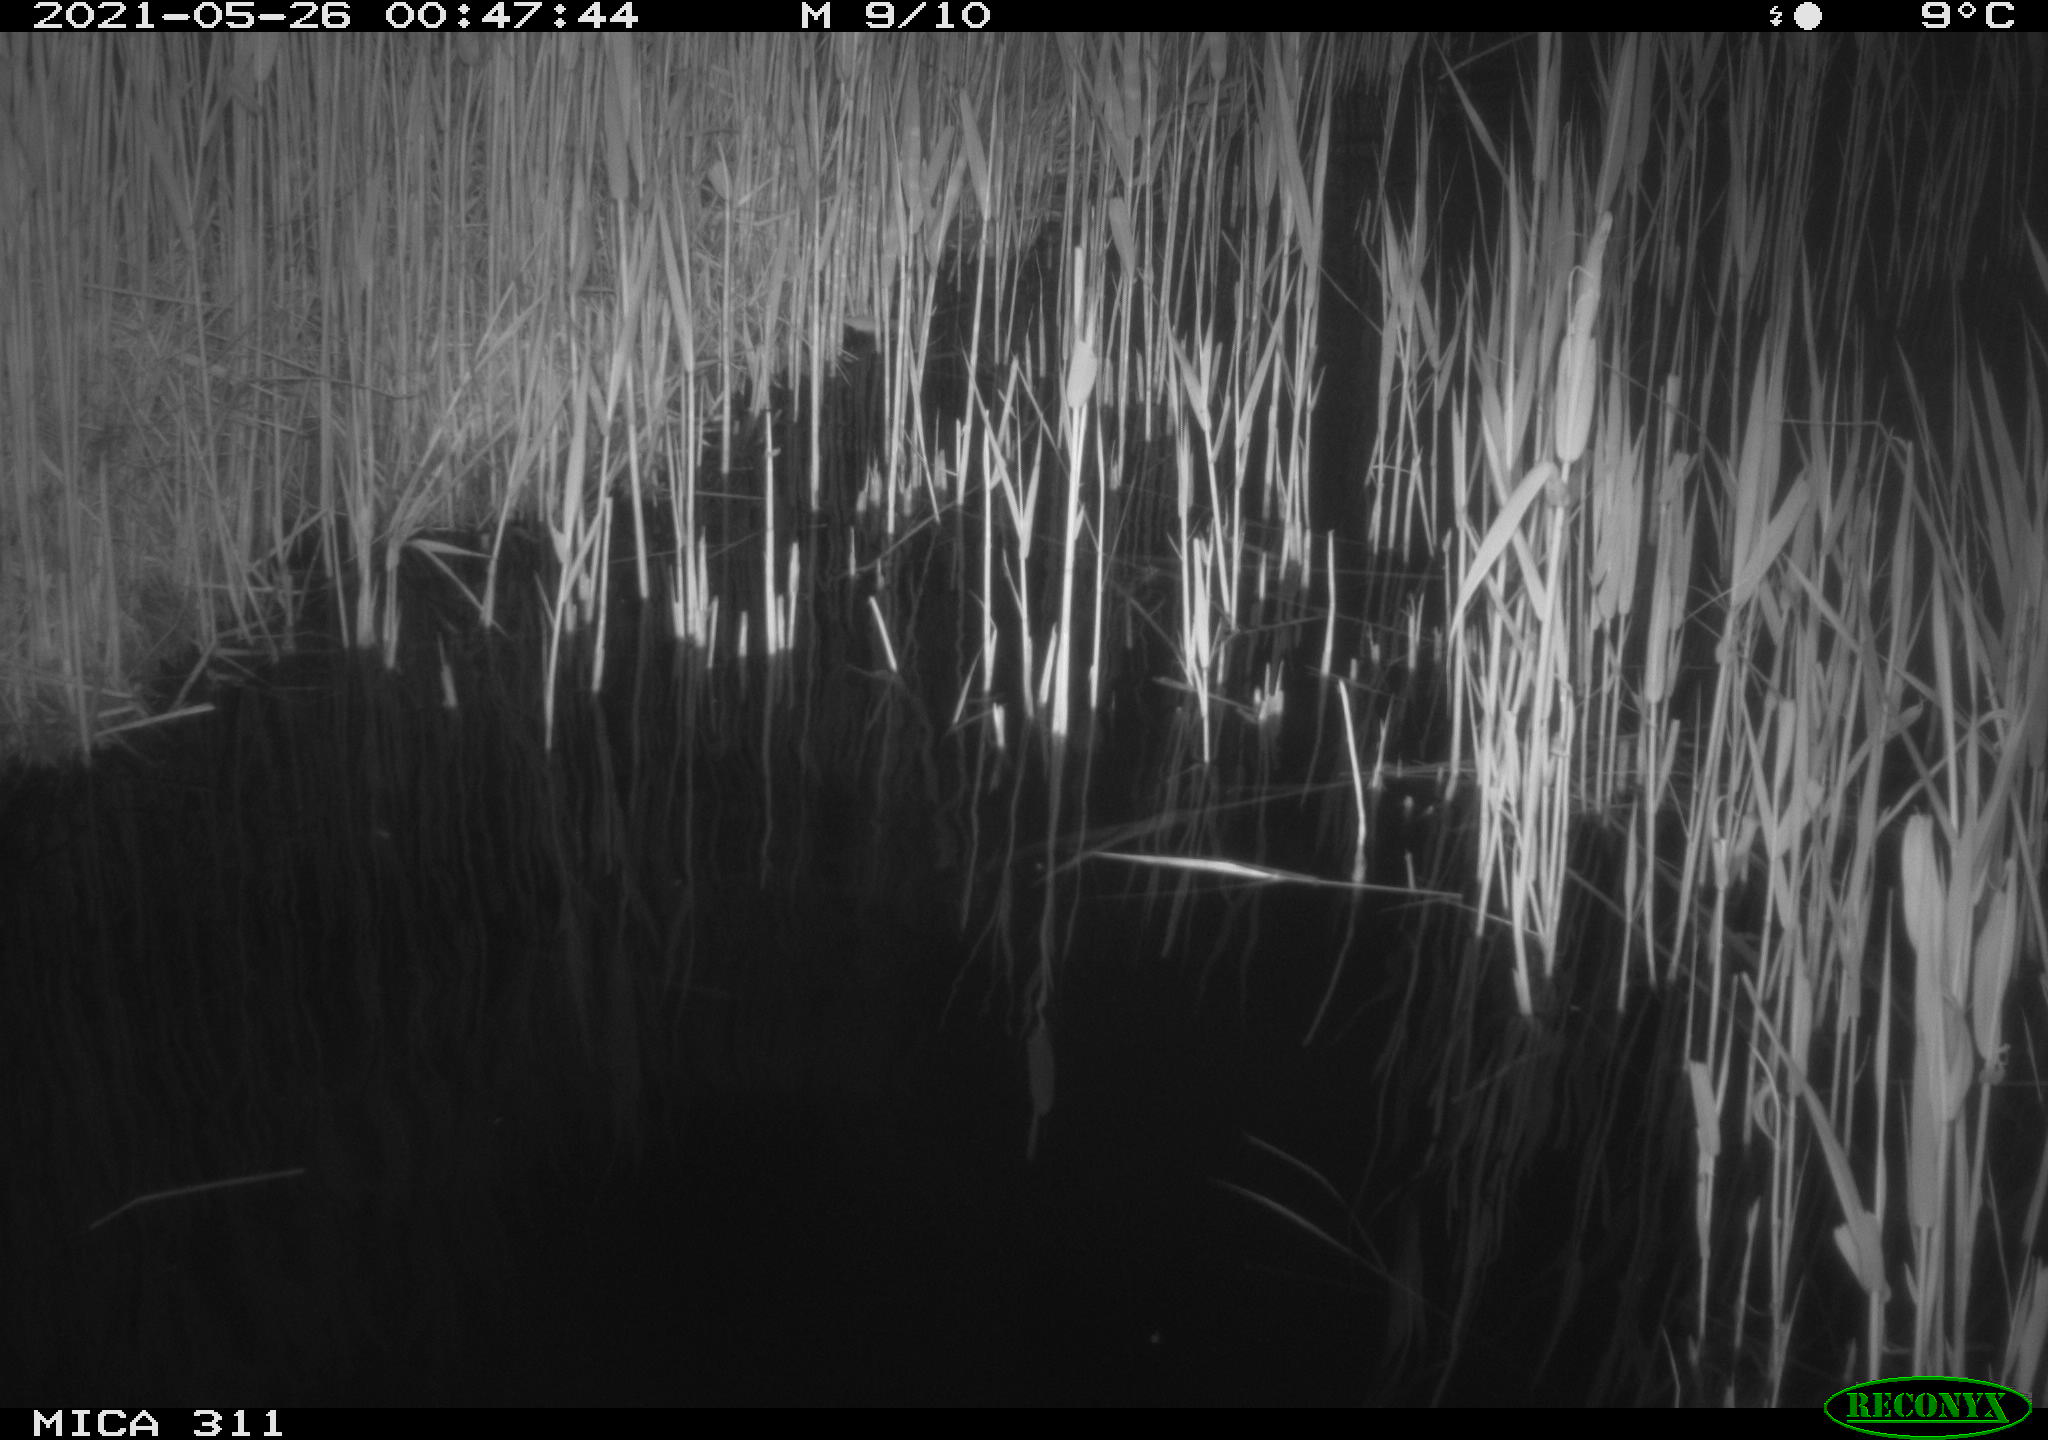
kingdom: Animalia
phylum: Chordata
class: Aves
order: Anseriformes
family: Anatidae
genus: Anas
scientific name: Anas platyrhynchos
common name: Mallard
